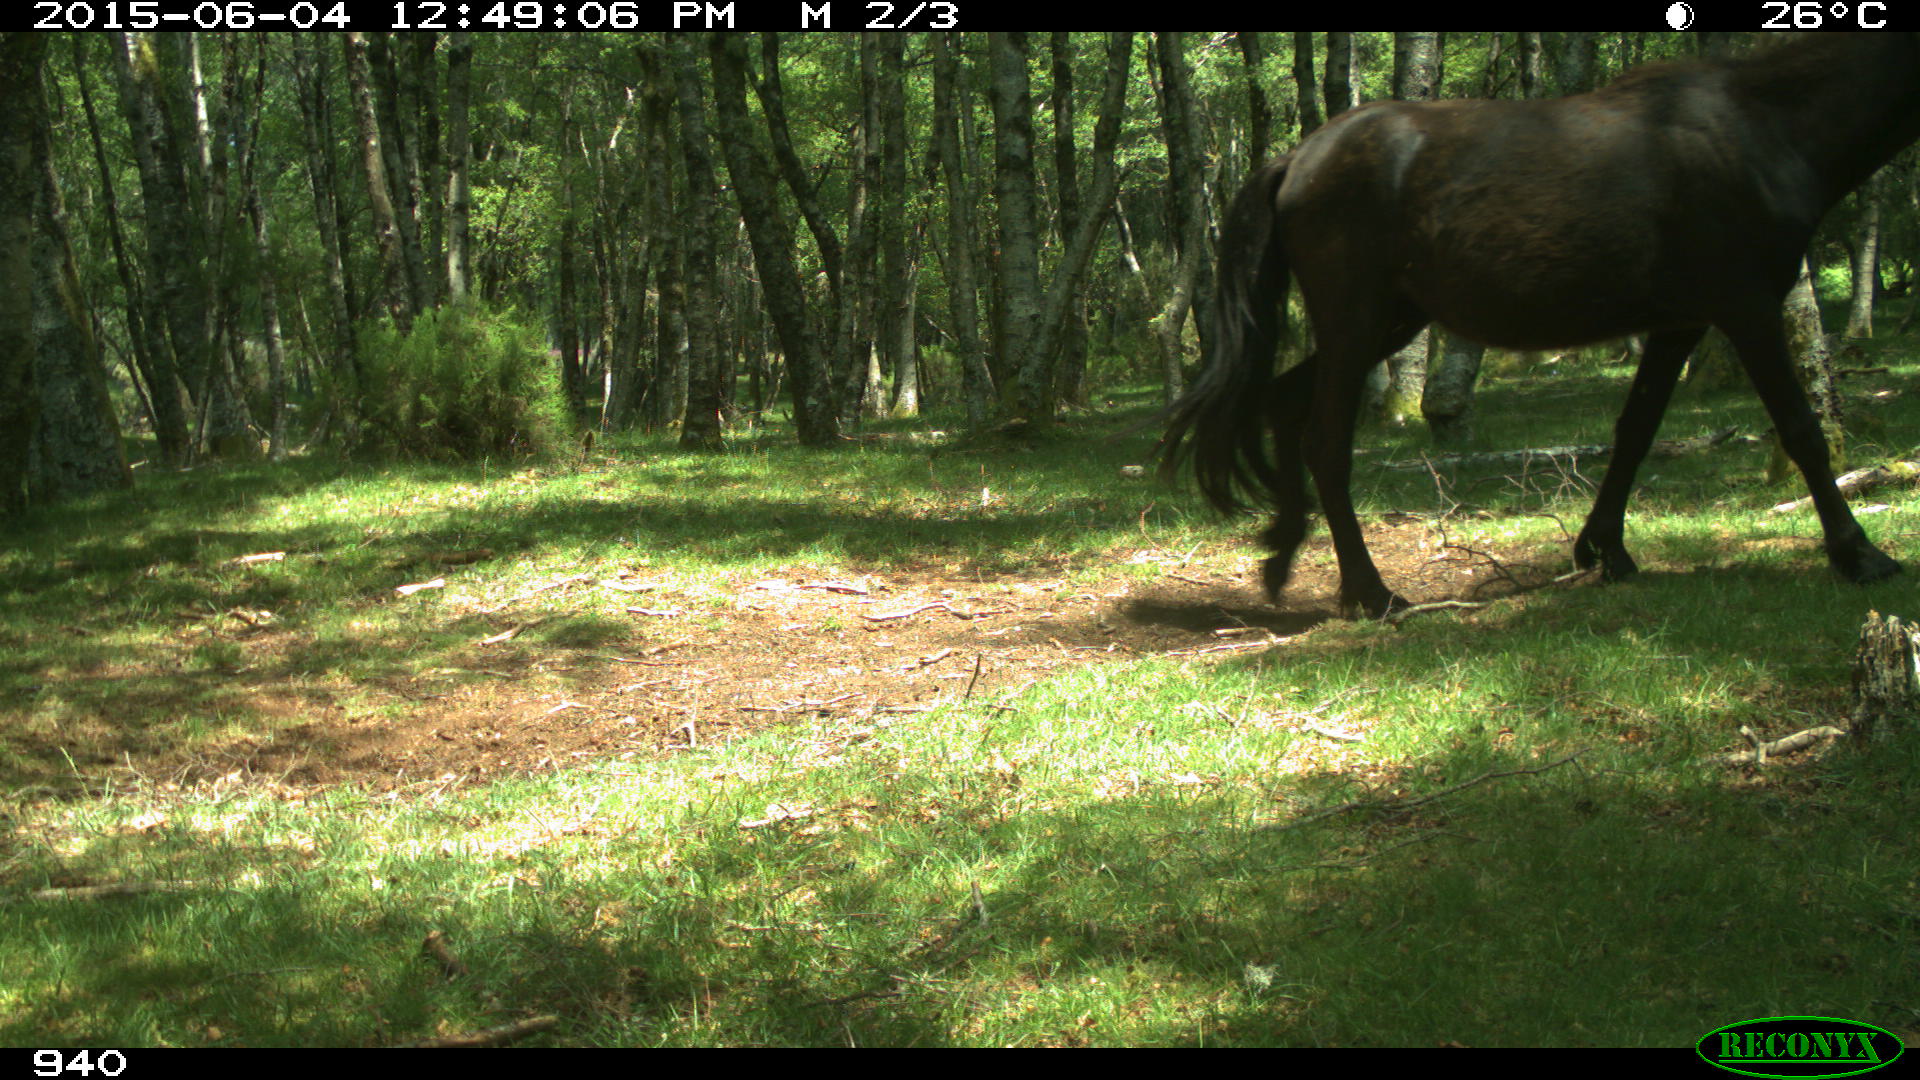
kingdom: Animalia
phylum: Chordata
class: Mammalia
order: Perissodactyla
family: Equidae
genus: Equus
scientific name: Equus caballus
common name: Horse
